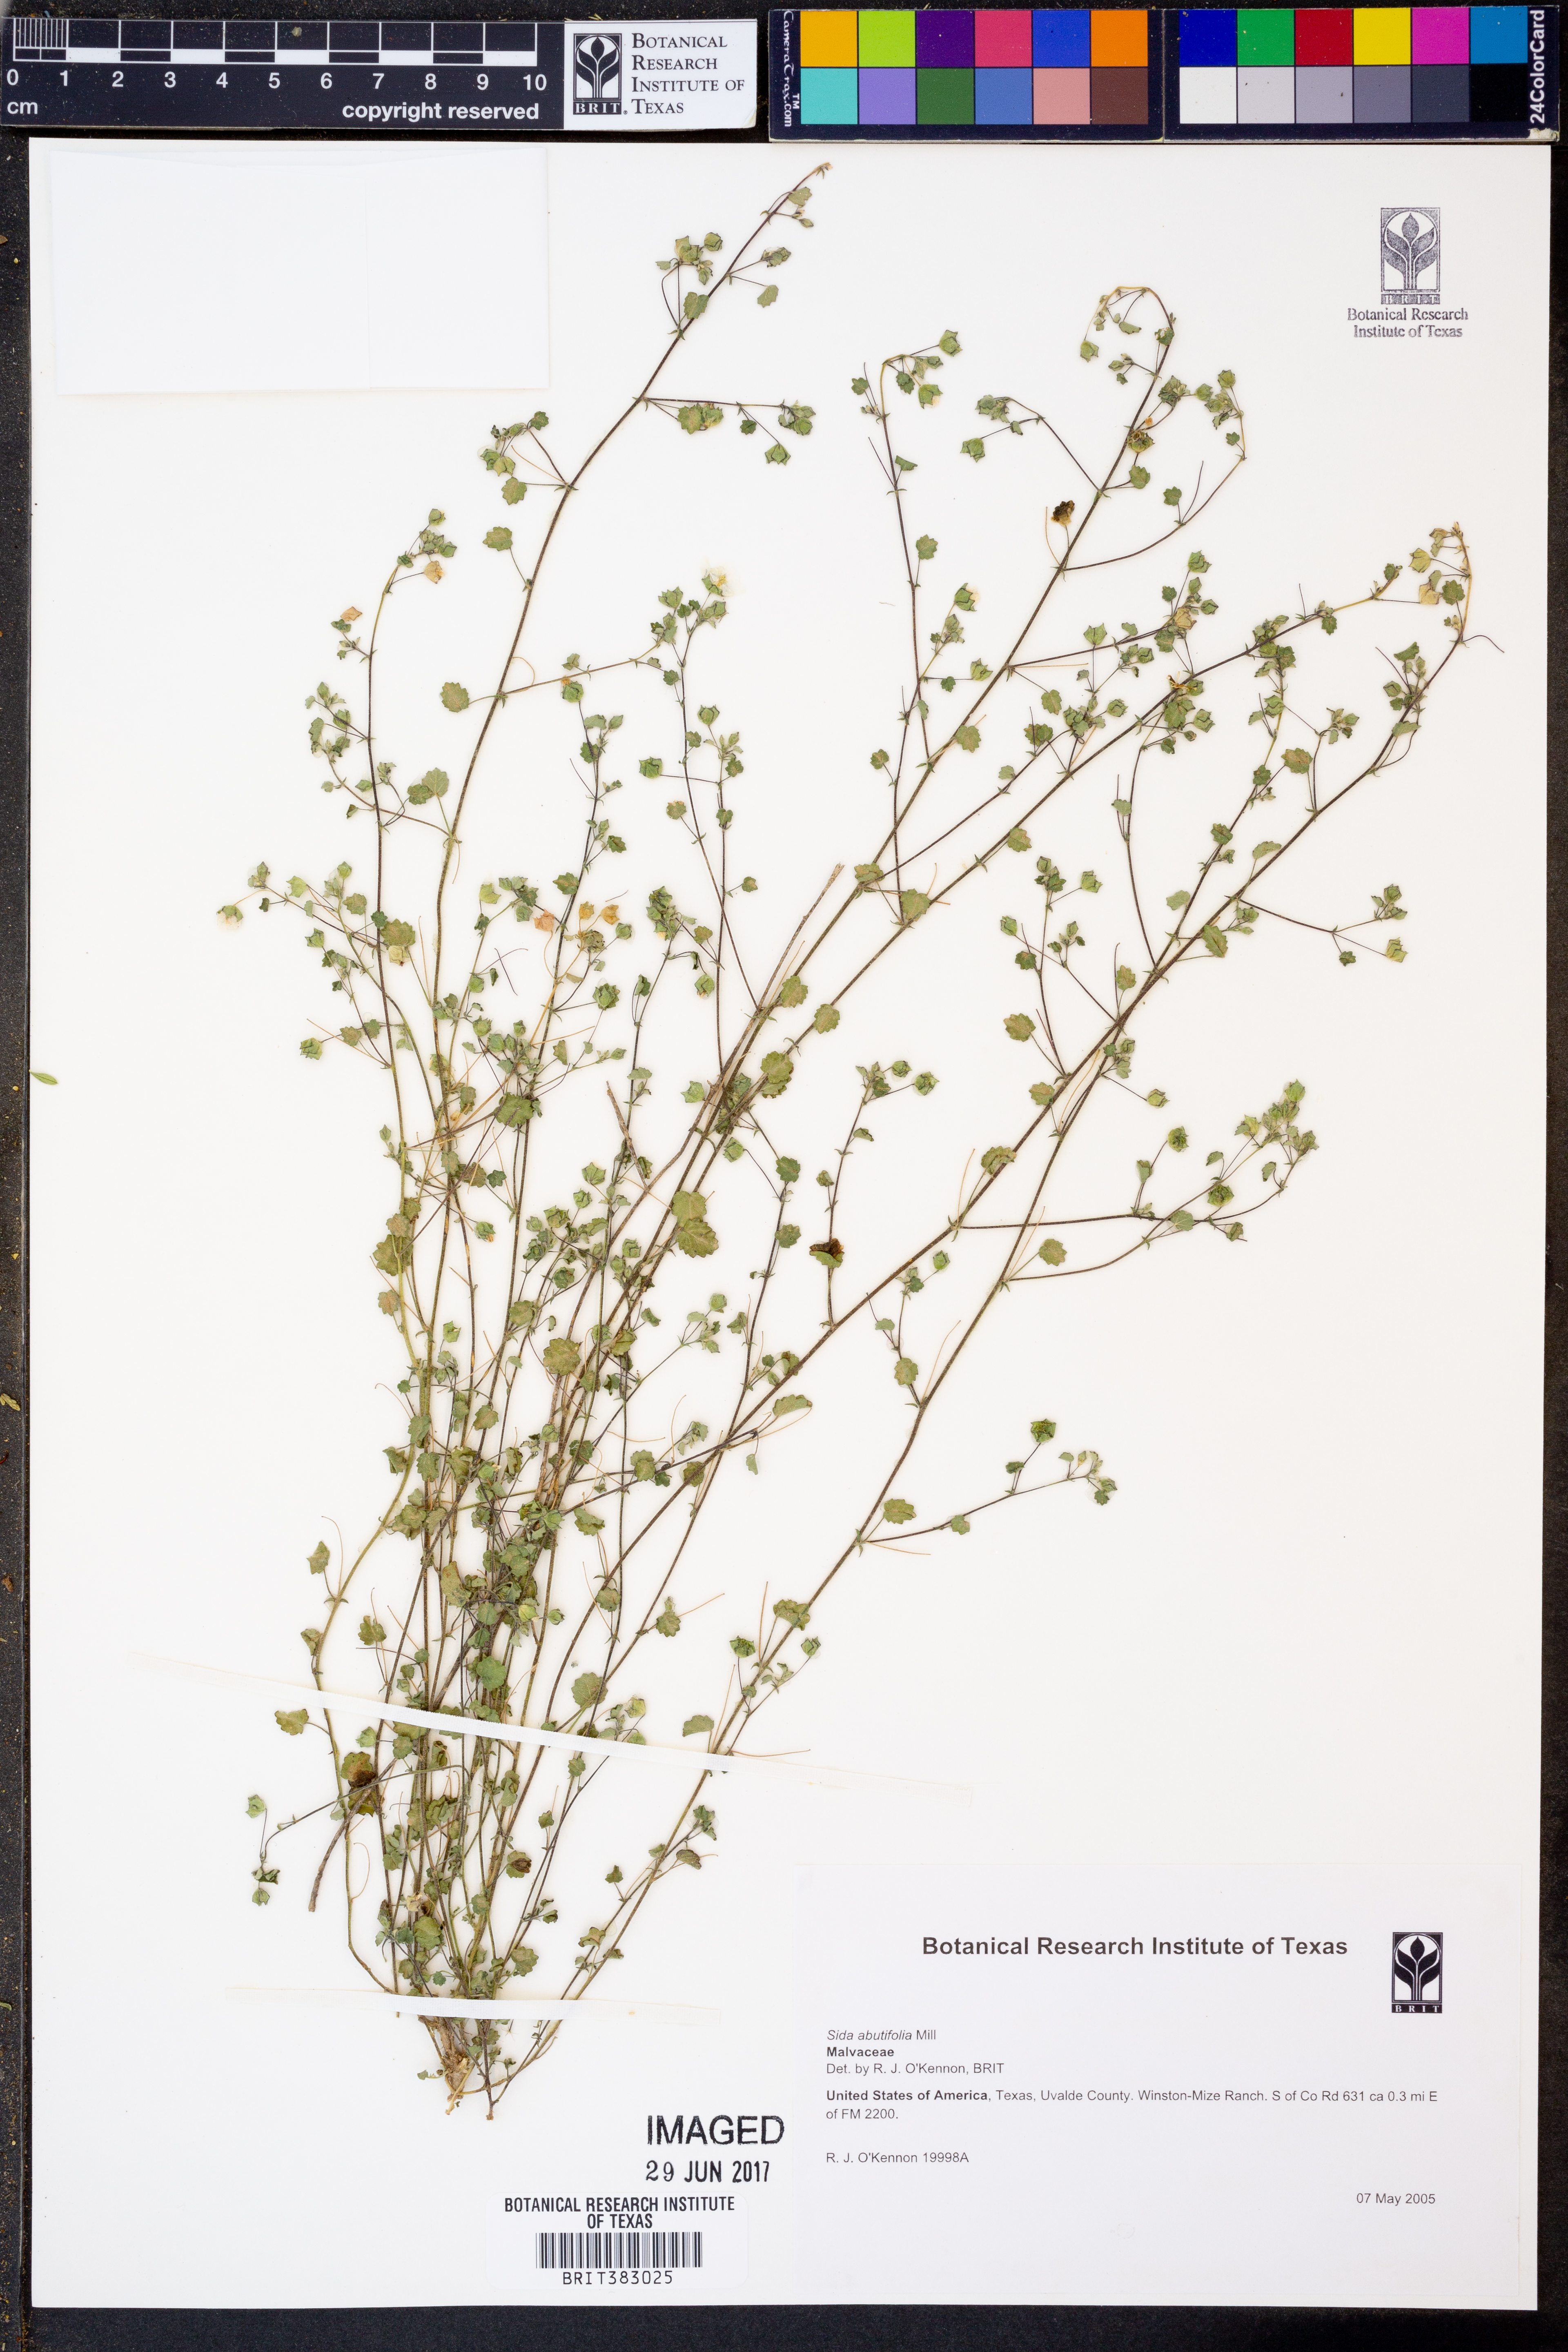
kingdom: Plantae
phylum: Tracheophyta
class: Magnoliopsida
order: Malvales
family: Malvaceae
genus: Sida
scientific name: Sida abutifolia
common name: Spreading fantails
